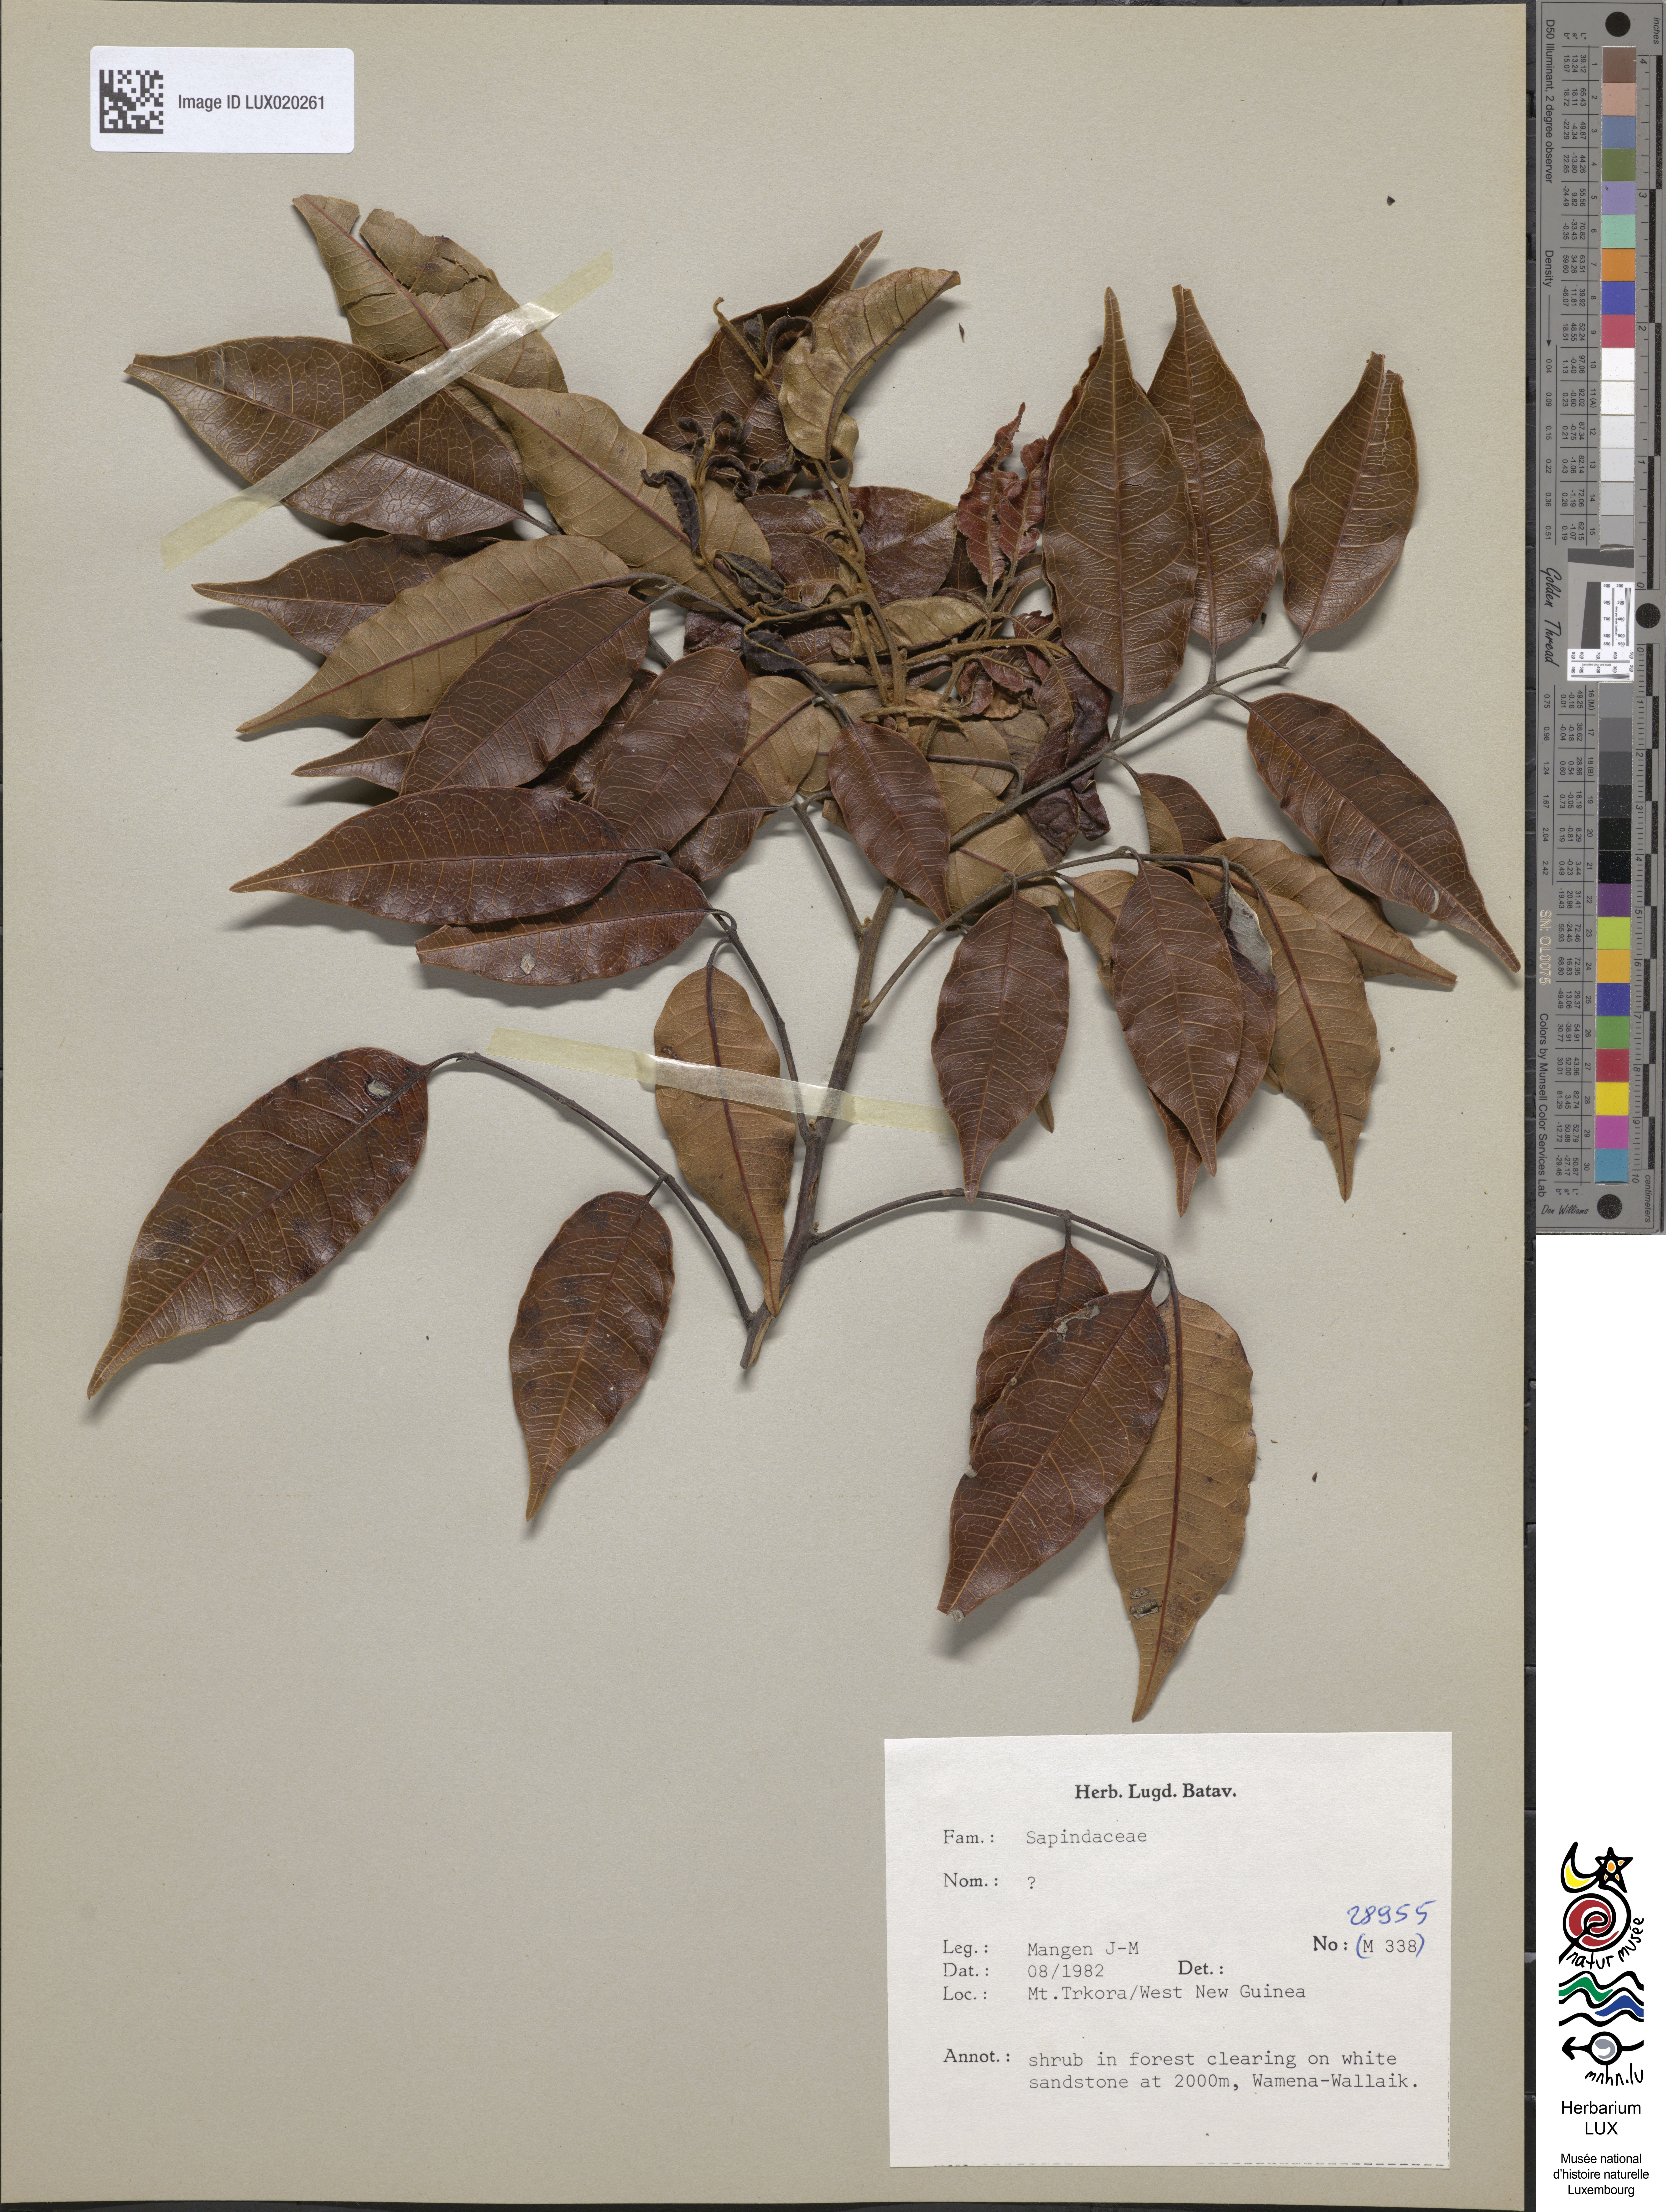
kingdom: Plantae
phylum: Tracheophyta
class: Magnoliopsida
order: Sapindales
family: Sapindaceae
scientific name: Sapindaceae
